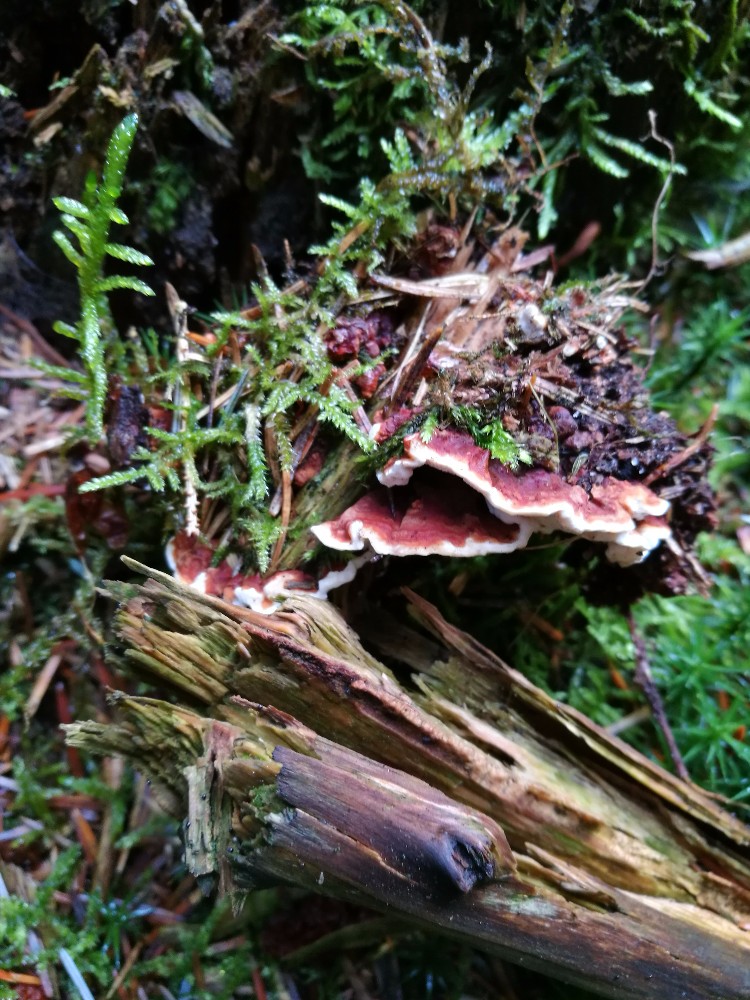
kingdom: Fungi
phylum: Basidiomycota
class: Agaricomycetes
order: Russulales
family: Bondarzewiaceae
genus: Heterobasidion
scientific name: Heterobasidion annosum
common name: almindelig rodfordærver
